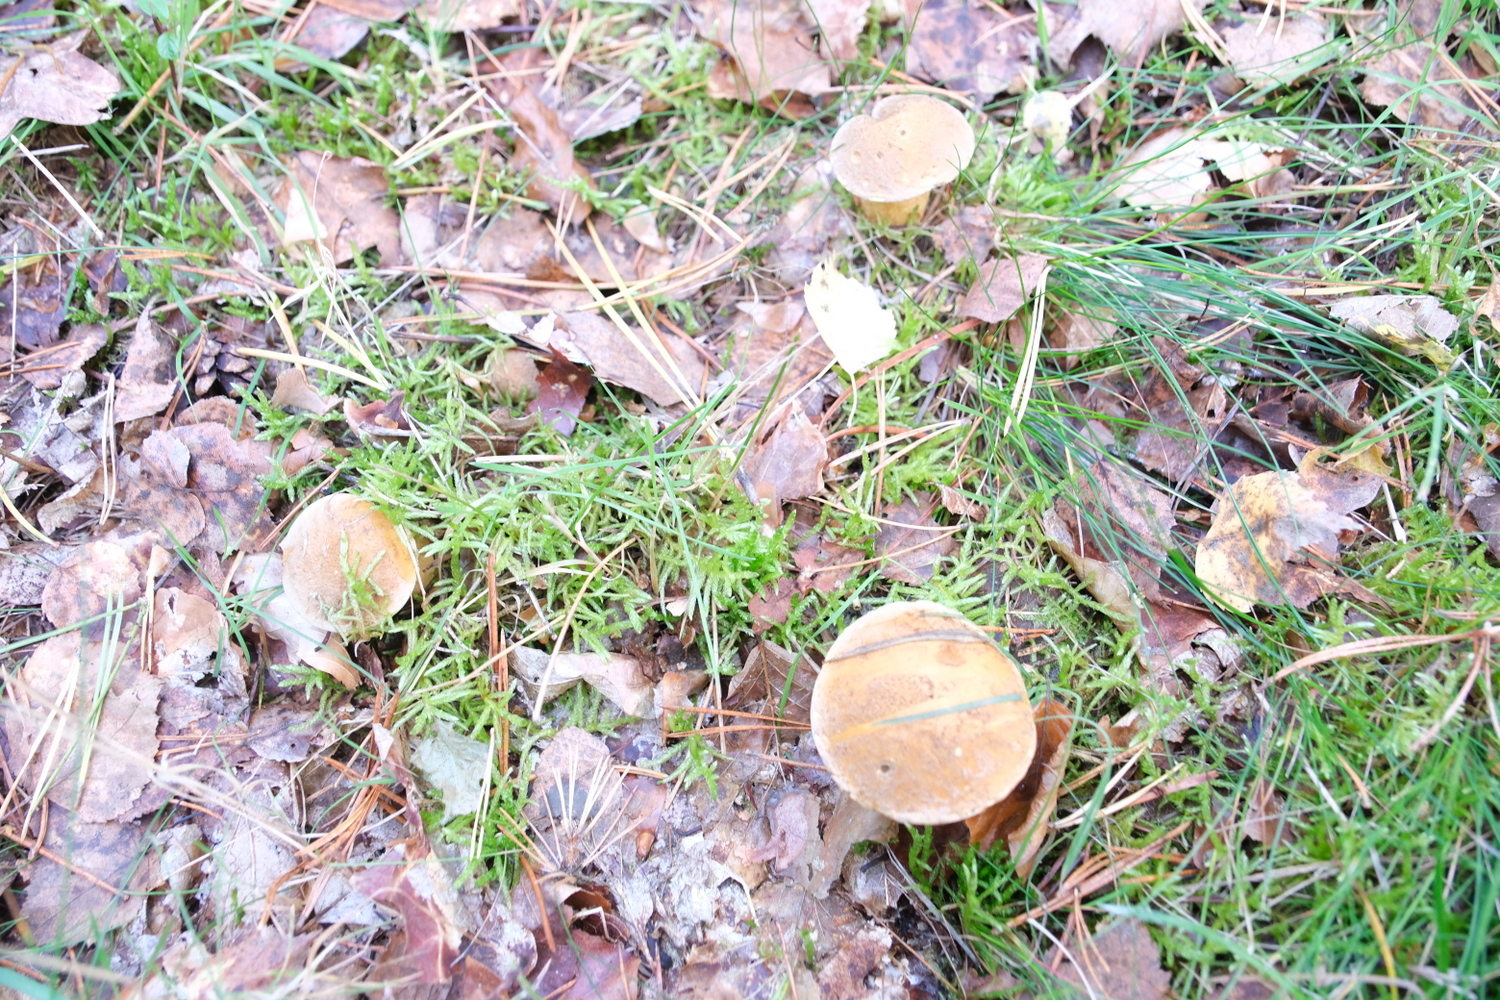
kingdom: Fungi
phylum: Basidiomycota
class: Agaricomycetes
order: Boletales
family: Suillaceae
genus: Suillus
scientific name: Suillus variegatus
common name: broget slimrørhat
